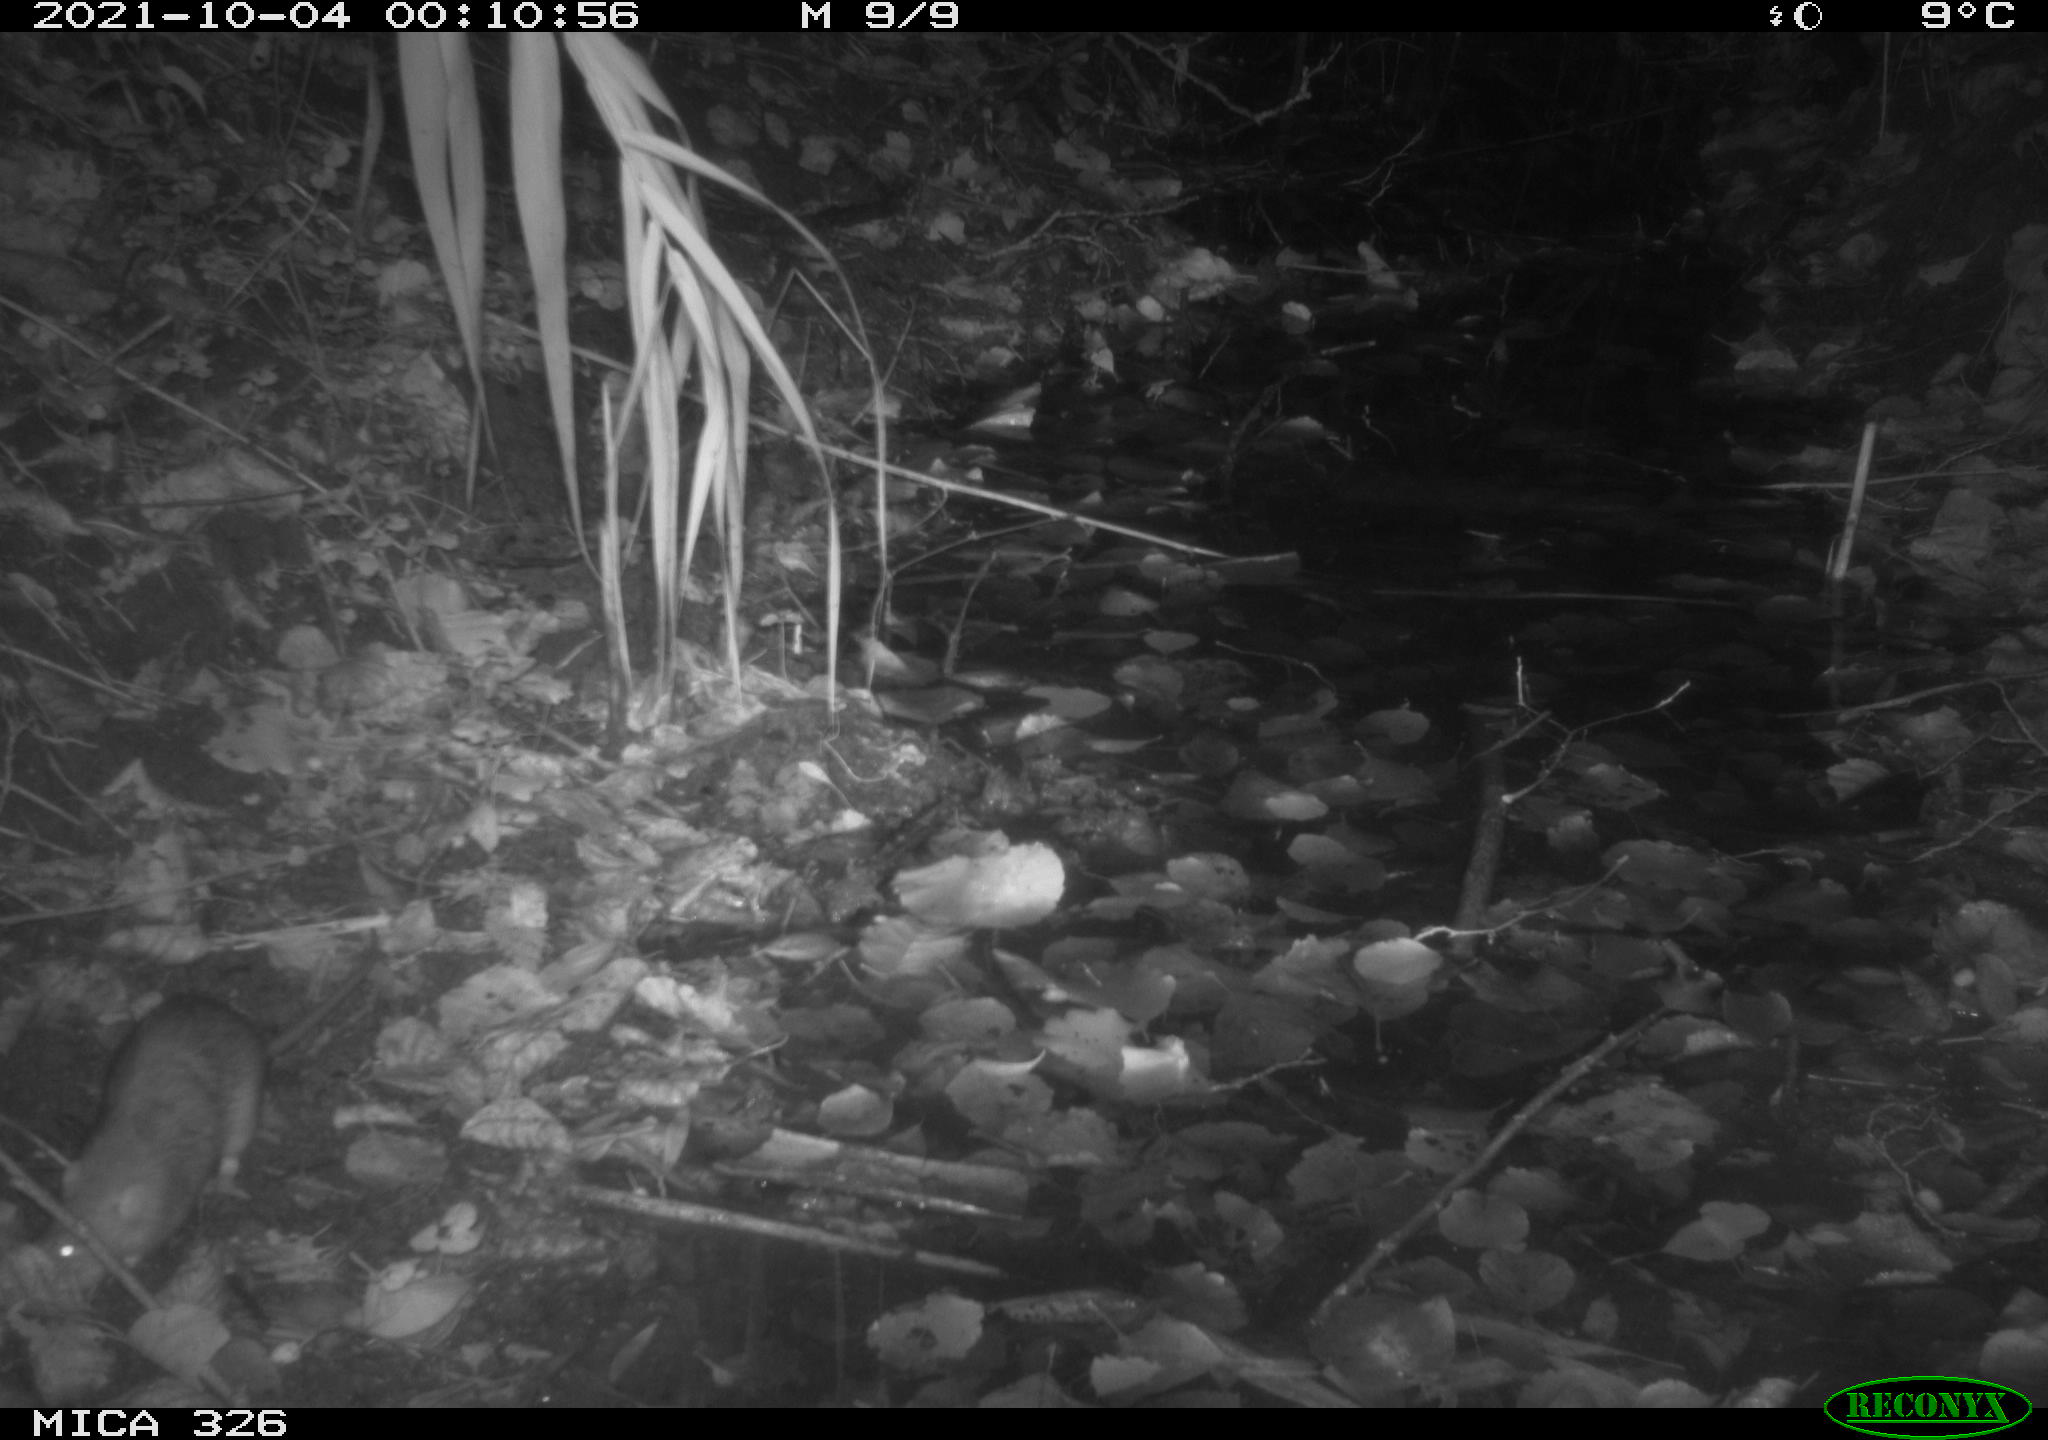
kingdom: Animalia
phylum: Chordata
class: Mammalia
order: Rodentia
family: Muridae
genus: Rattus
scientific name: Rattus norvegicus
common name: Brown rat
